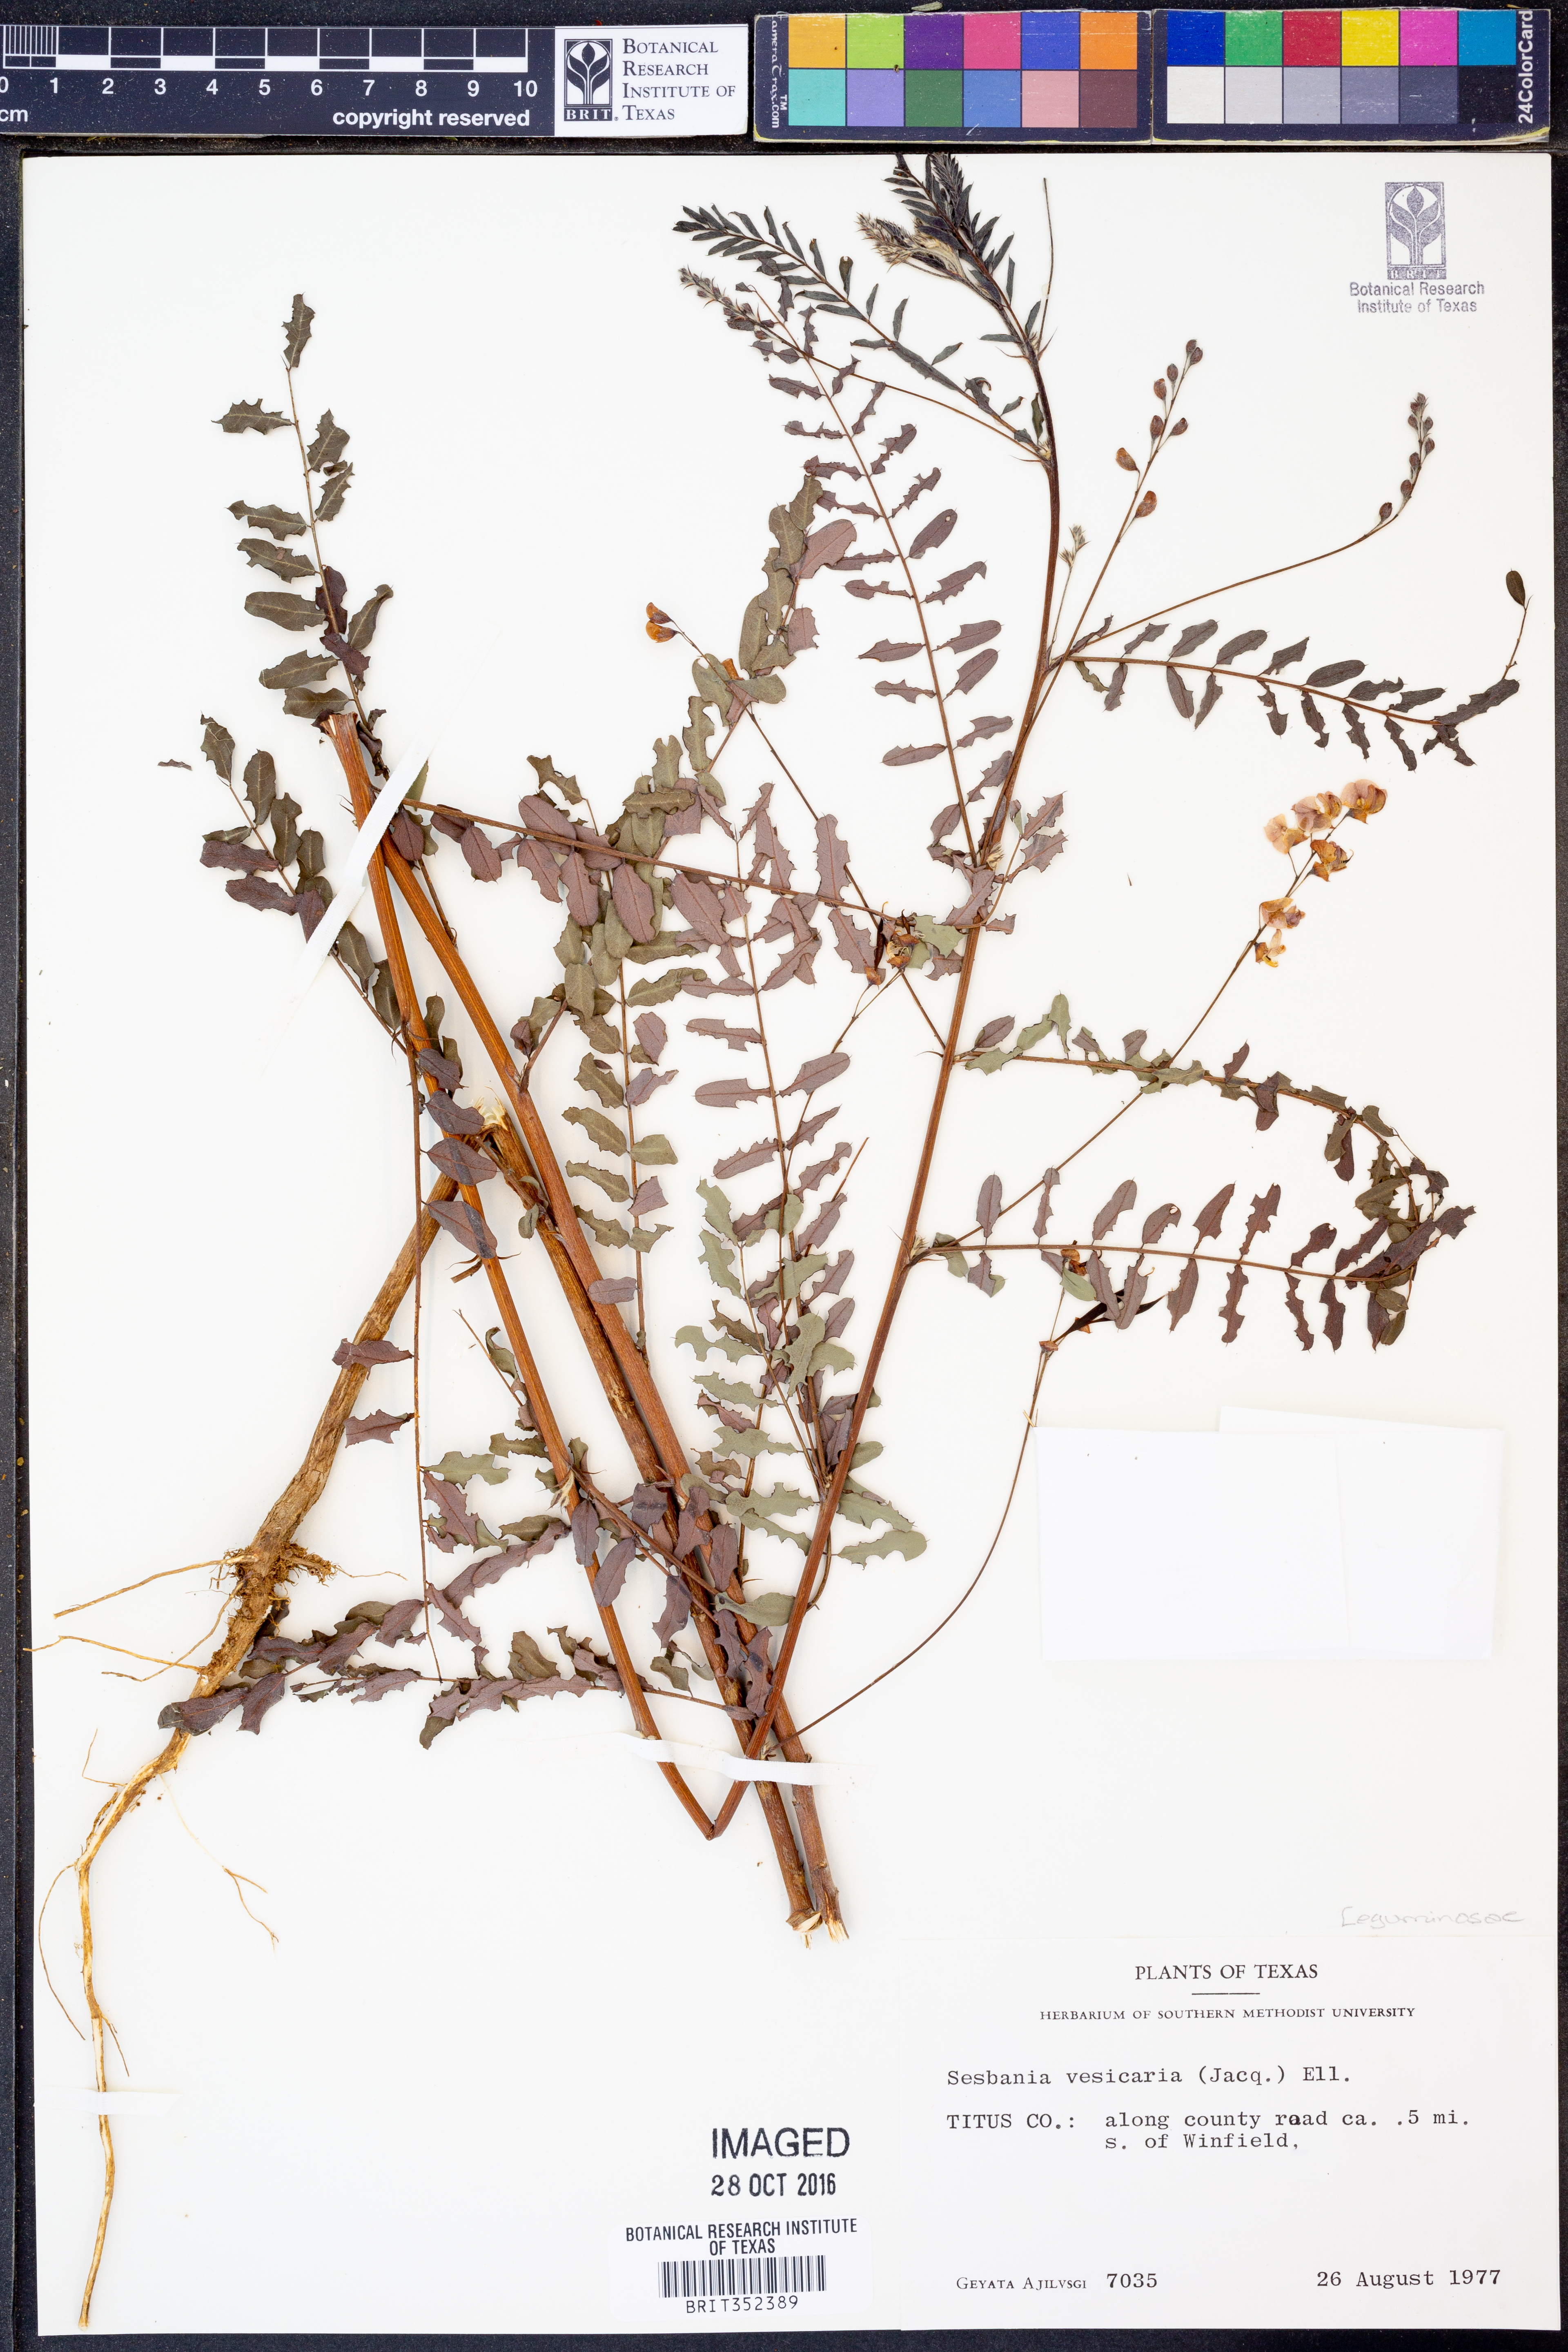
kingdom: Plantae
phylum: Tracheophyta
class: Magnoliopsida
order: Fabales
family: Fabaceae
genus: Sesbania
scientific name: Sesbania vesicaria
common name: Bagpod
